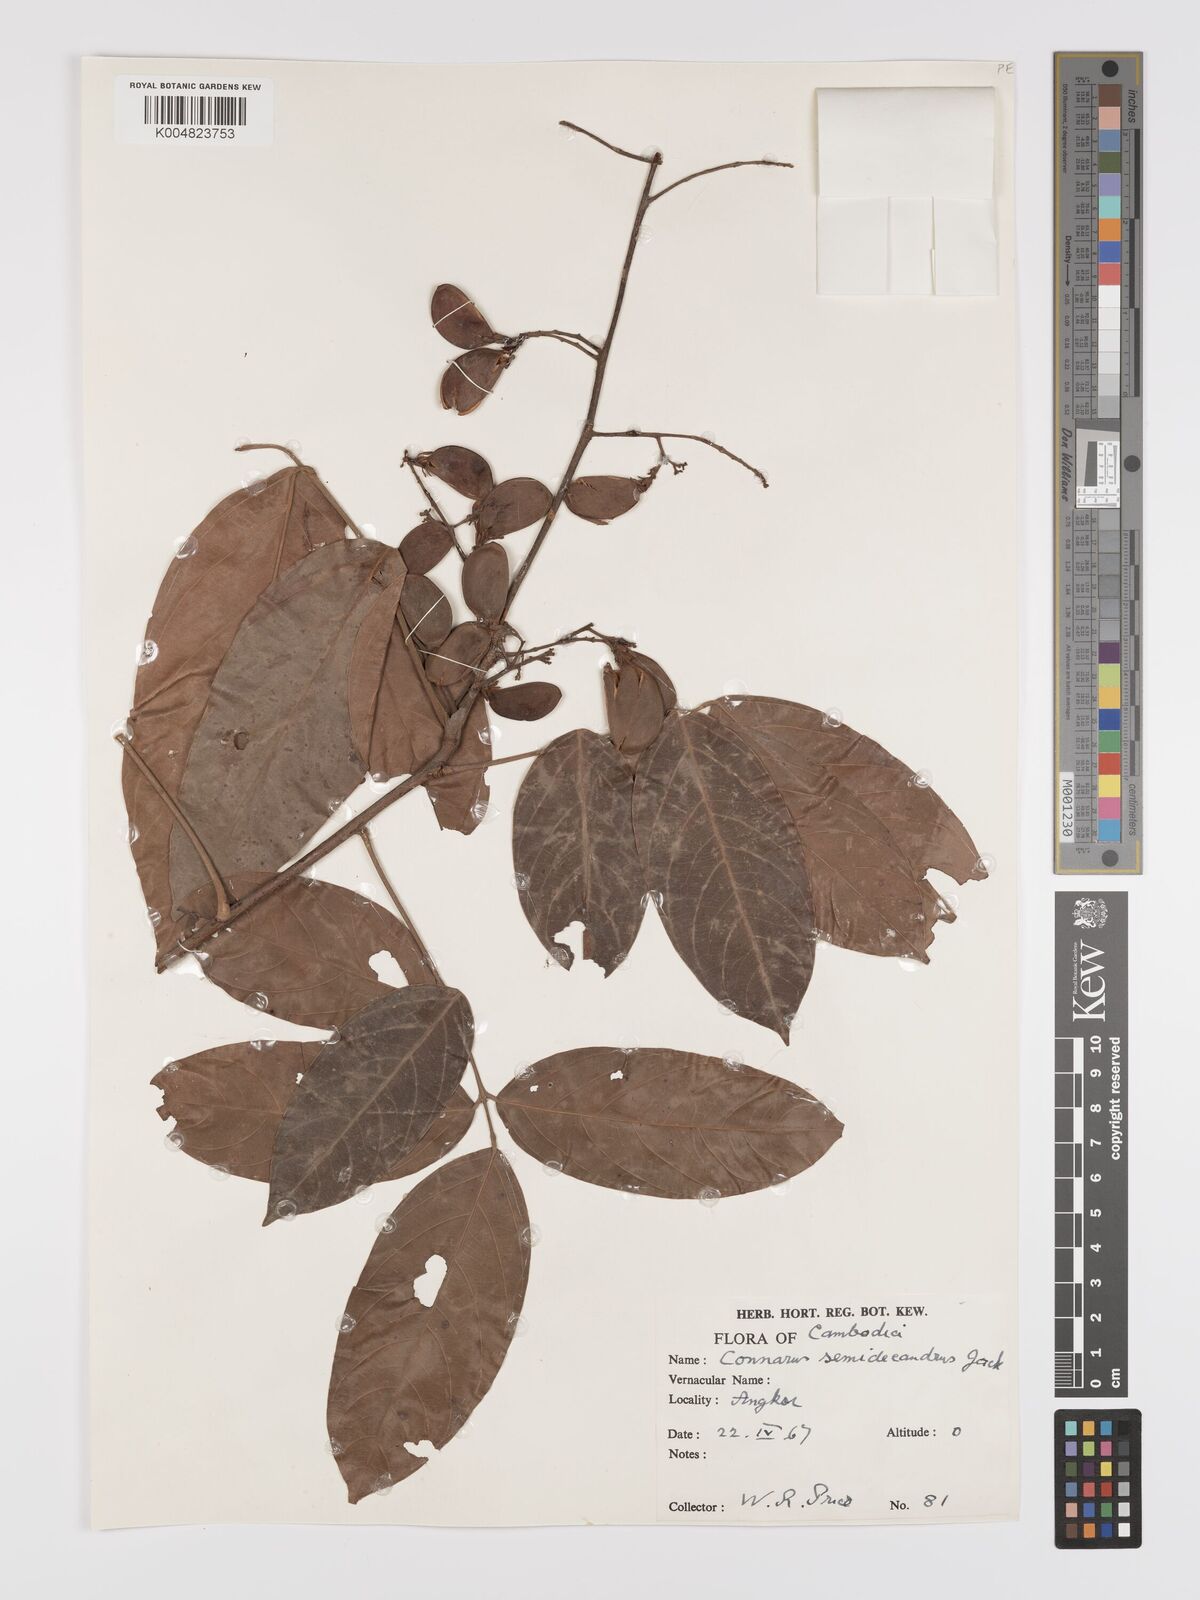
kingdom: Plantae
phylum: Tracheophyta
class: Magnoliopsida
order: Oxalidales
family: Connaraceae
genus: Connarus
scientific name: Connarus semidecandrus
